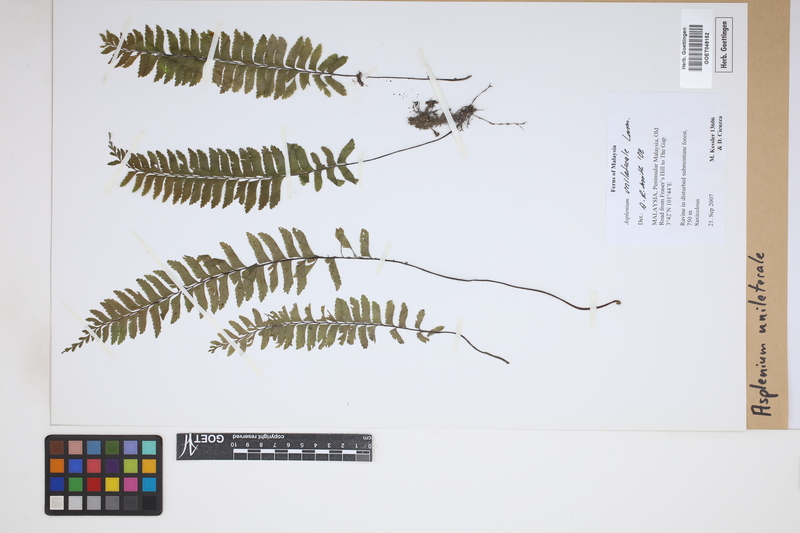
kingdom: Plantae
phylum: Tracheophyta
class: Polypodiopsida
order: Polypodiales
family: Aspleniaceae
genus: Hymenasplenium
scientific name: Hymenasplenium unilaterale
